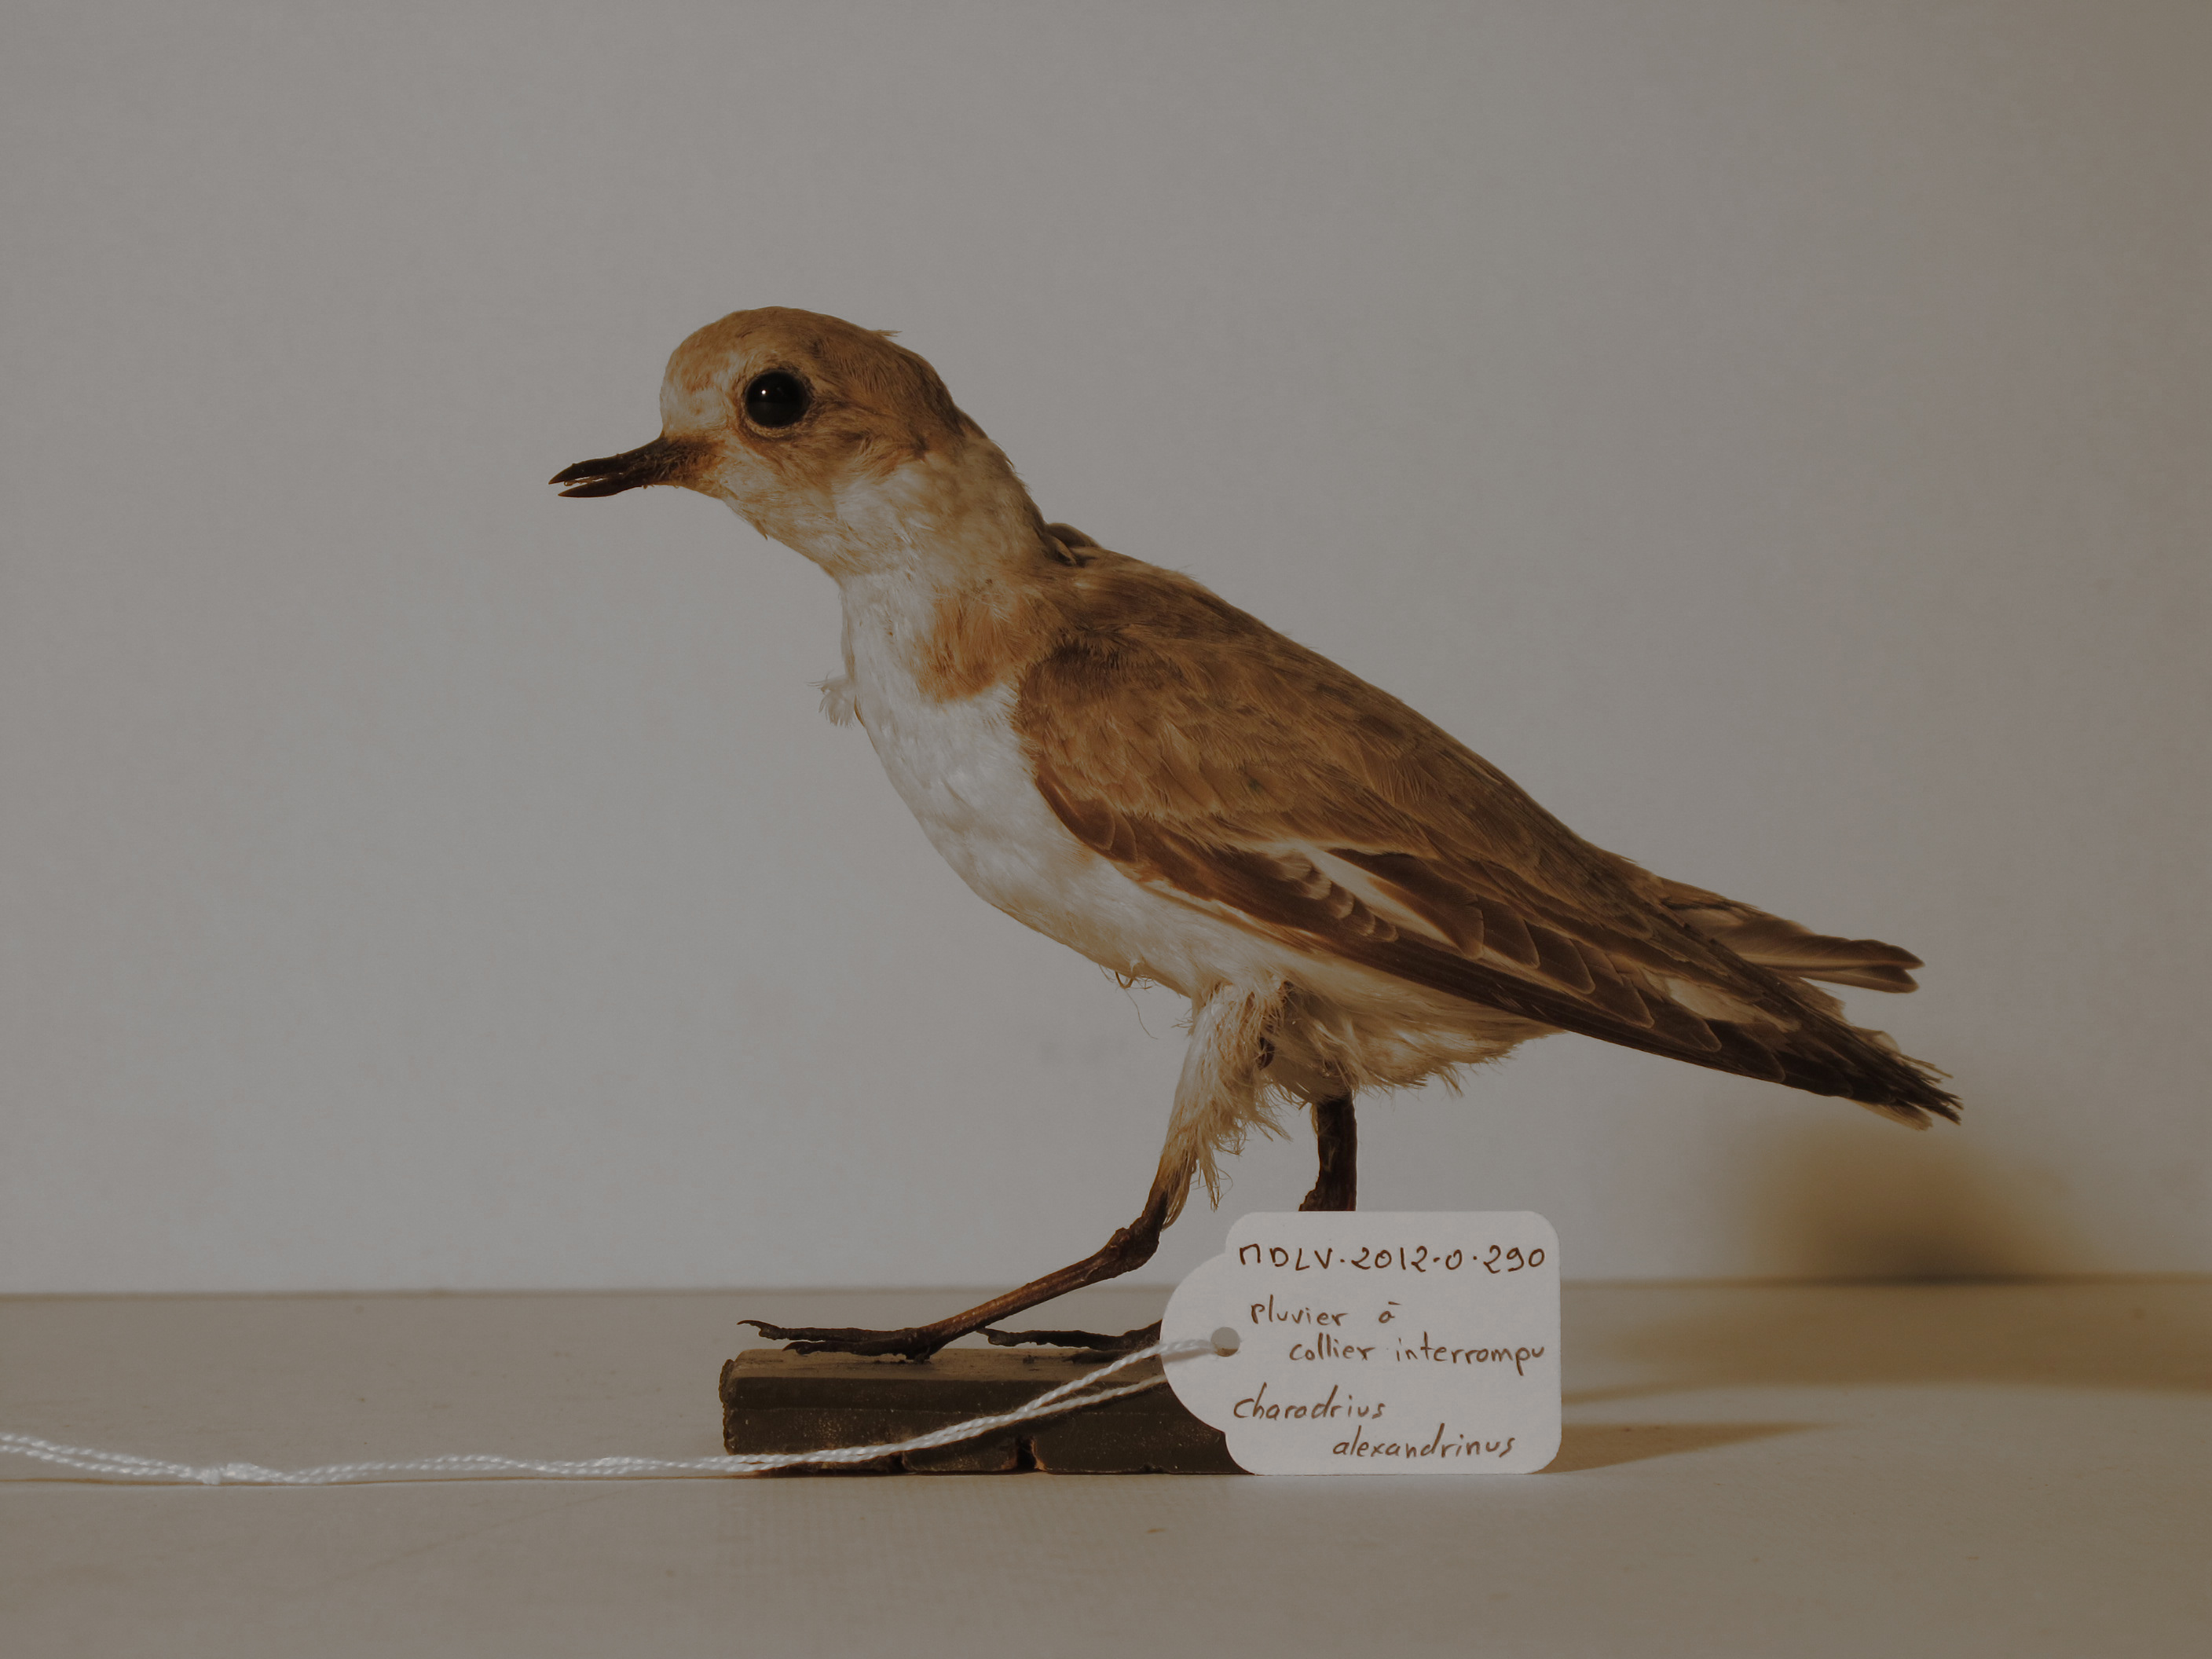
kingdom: Animalia
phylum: Chordata
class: Aves
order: Charadriiformes
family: Charadriidae
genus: Charadrius
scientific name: Charadrius alexandrinus
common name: Kentish Plover
